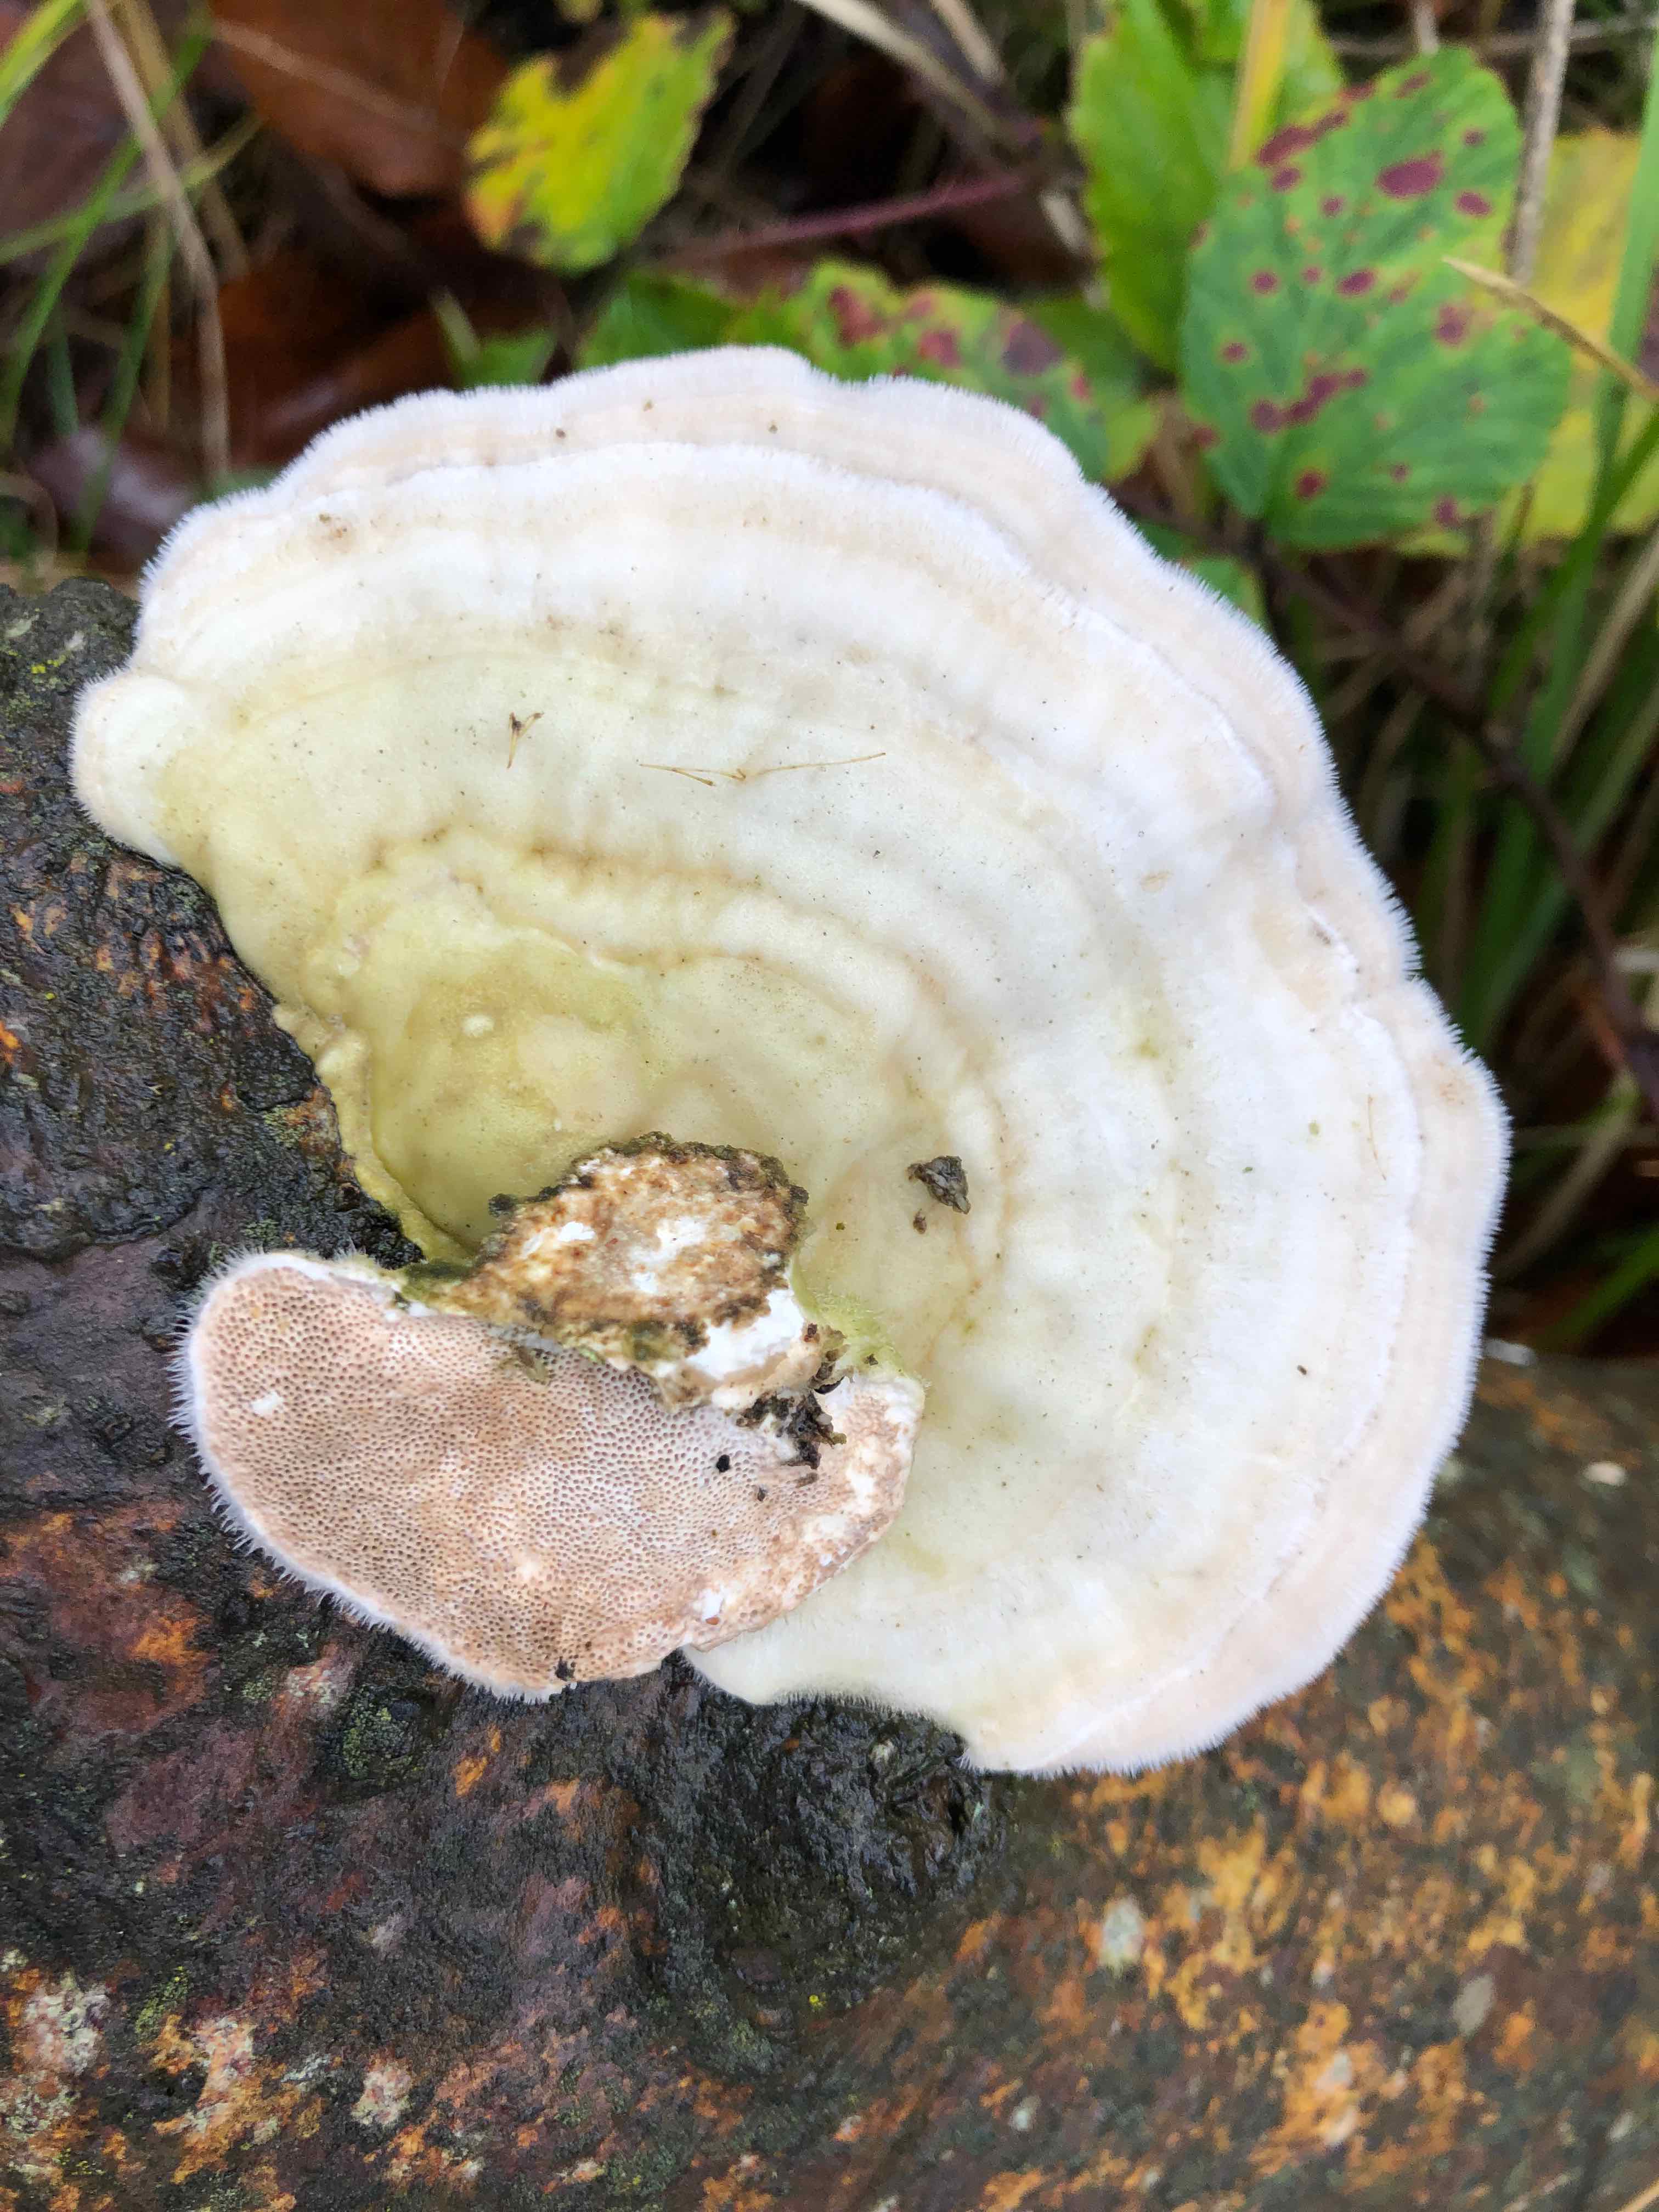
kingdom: Fungi
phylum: Basidiomycota
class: Agaricomycetes
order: Polyporales
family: Polyporaceae
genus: Trametes
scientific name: Trametes hirsuta
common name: håret læderporesvamp
